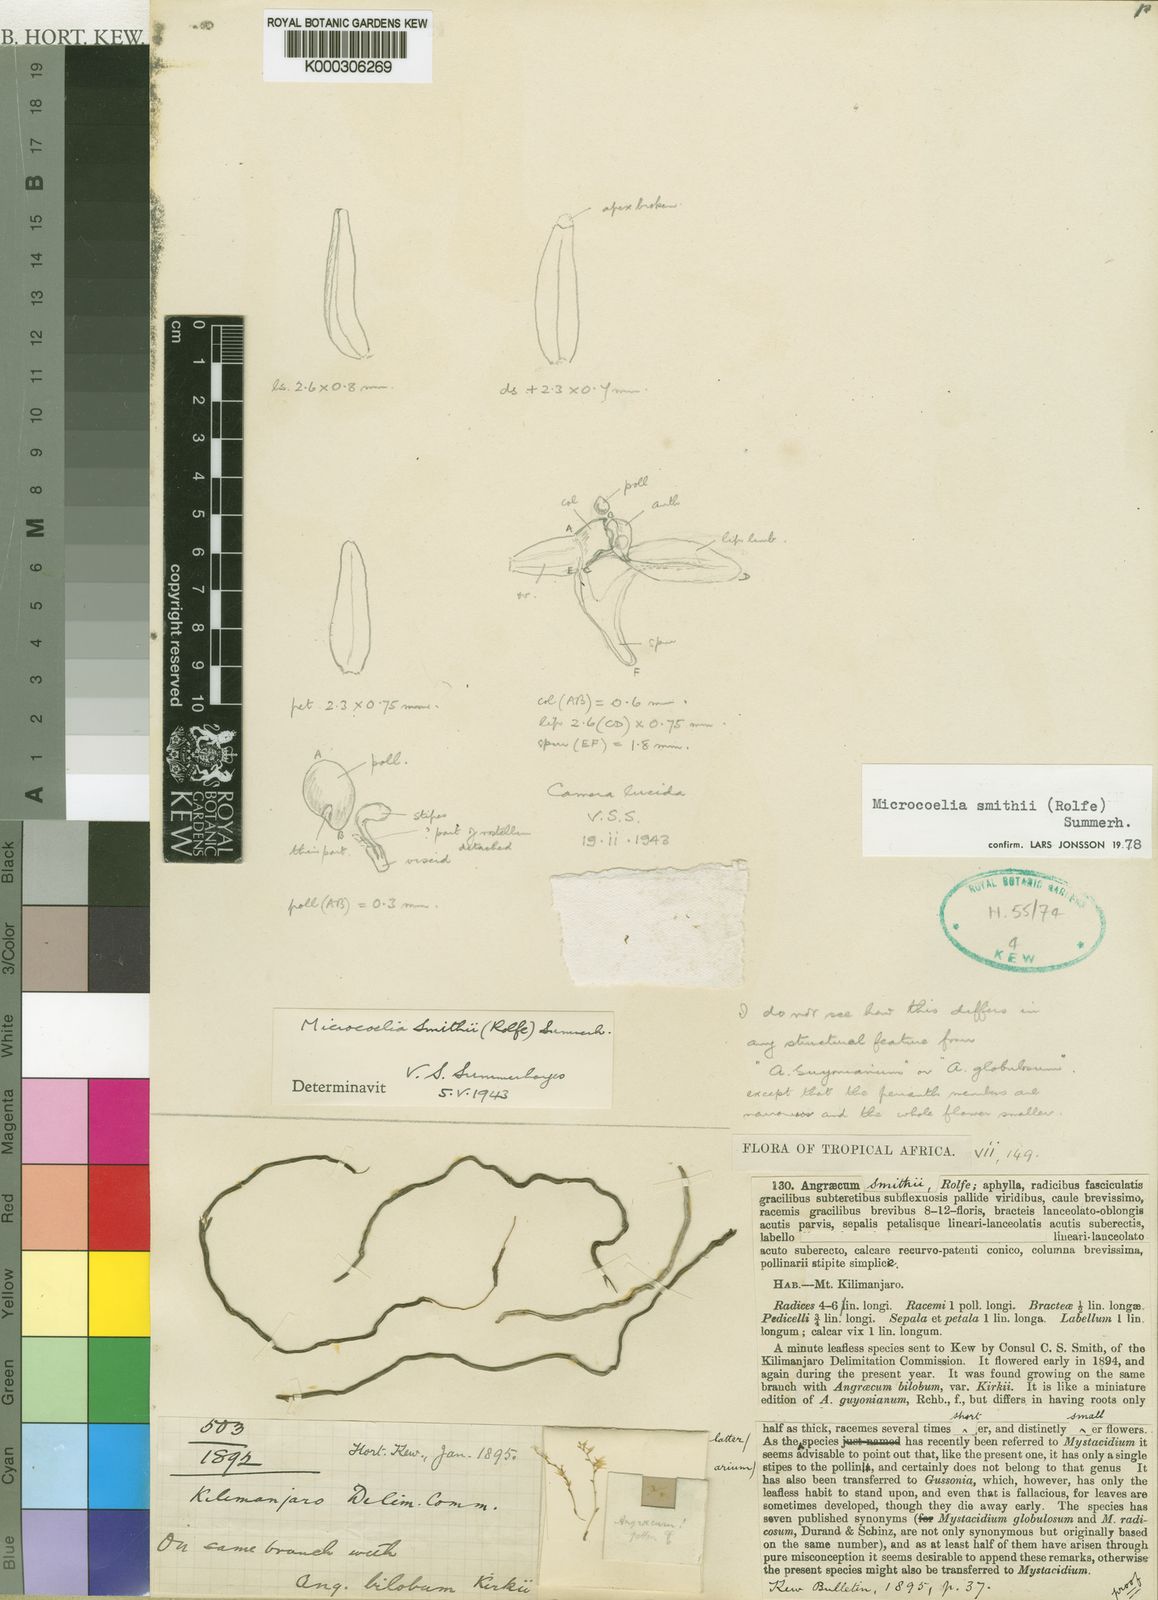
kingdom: Plantae
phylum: Tracheophyta
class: Liliopsida
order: Asparagales
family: Orchidaceae
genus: Microcoelia
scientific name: Microcoelia smithii
